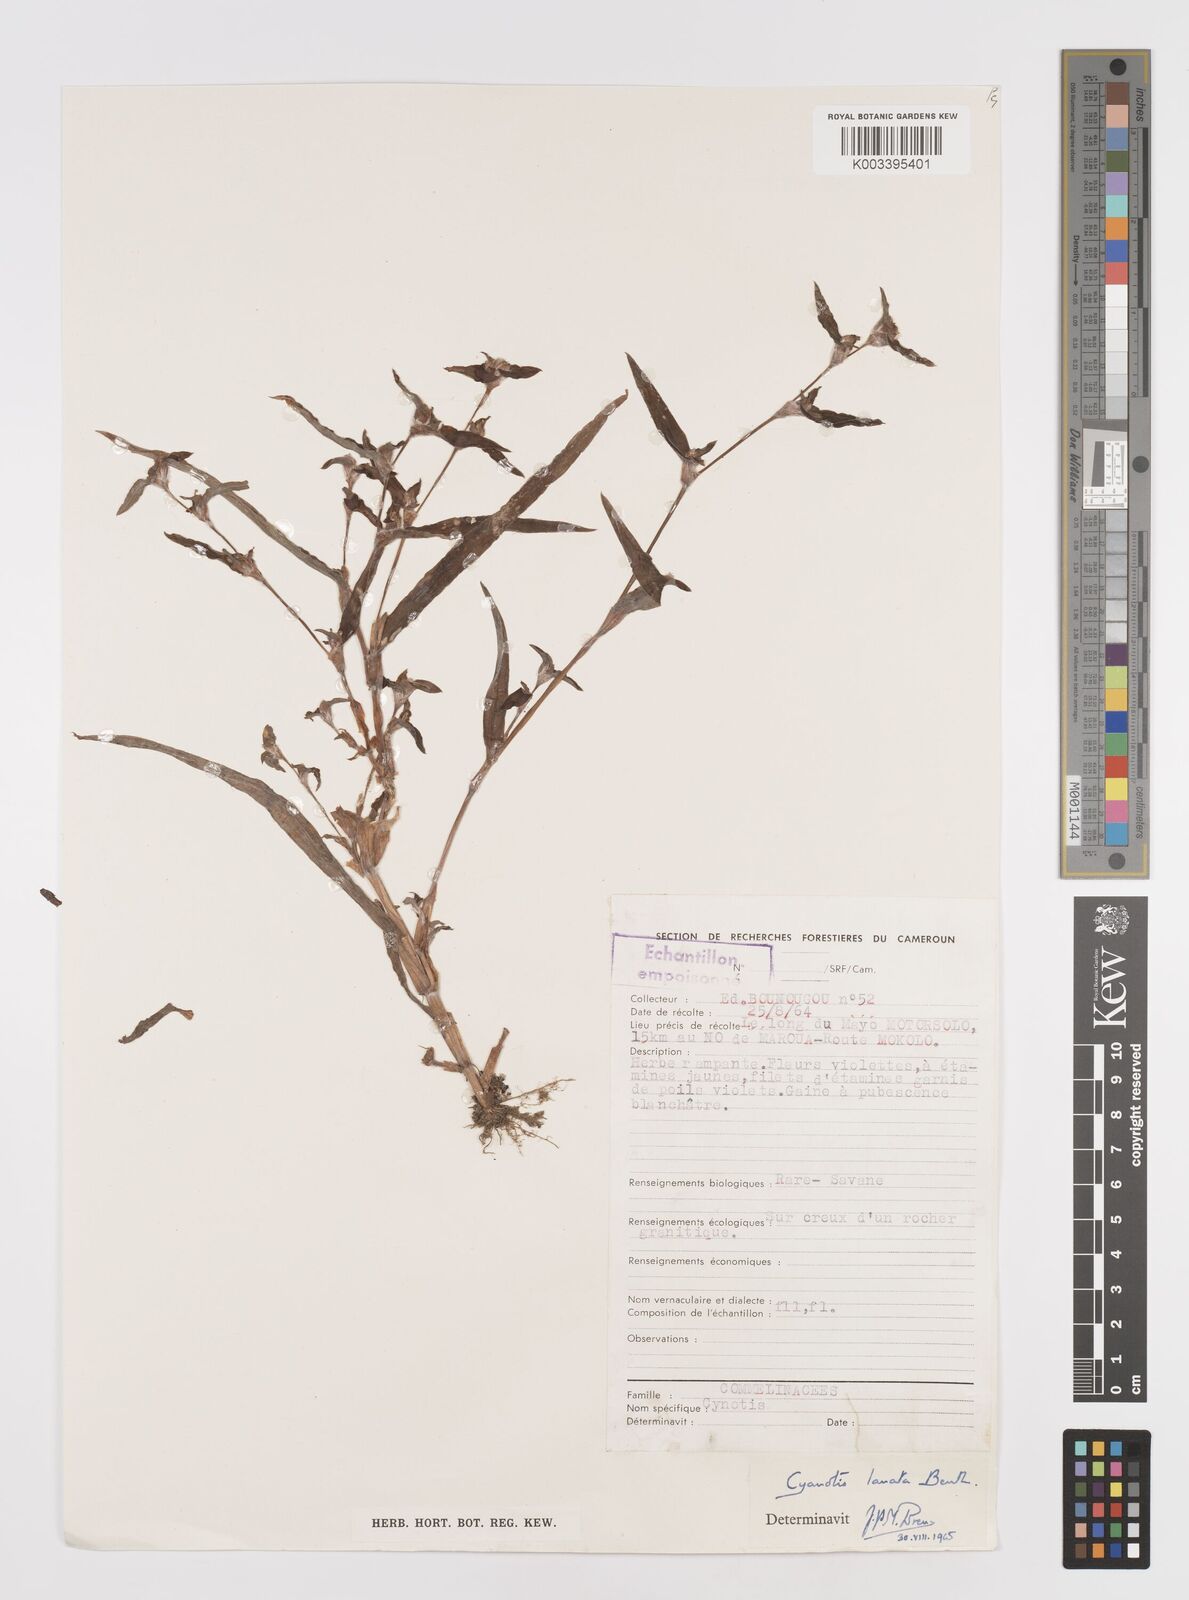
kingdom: Plantae
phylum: Tracheophyta
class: Liliopsida
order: Commelinales
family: Commelinaceae
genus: Cyanotis
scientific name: Cyanotis lanata
